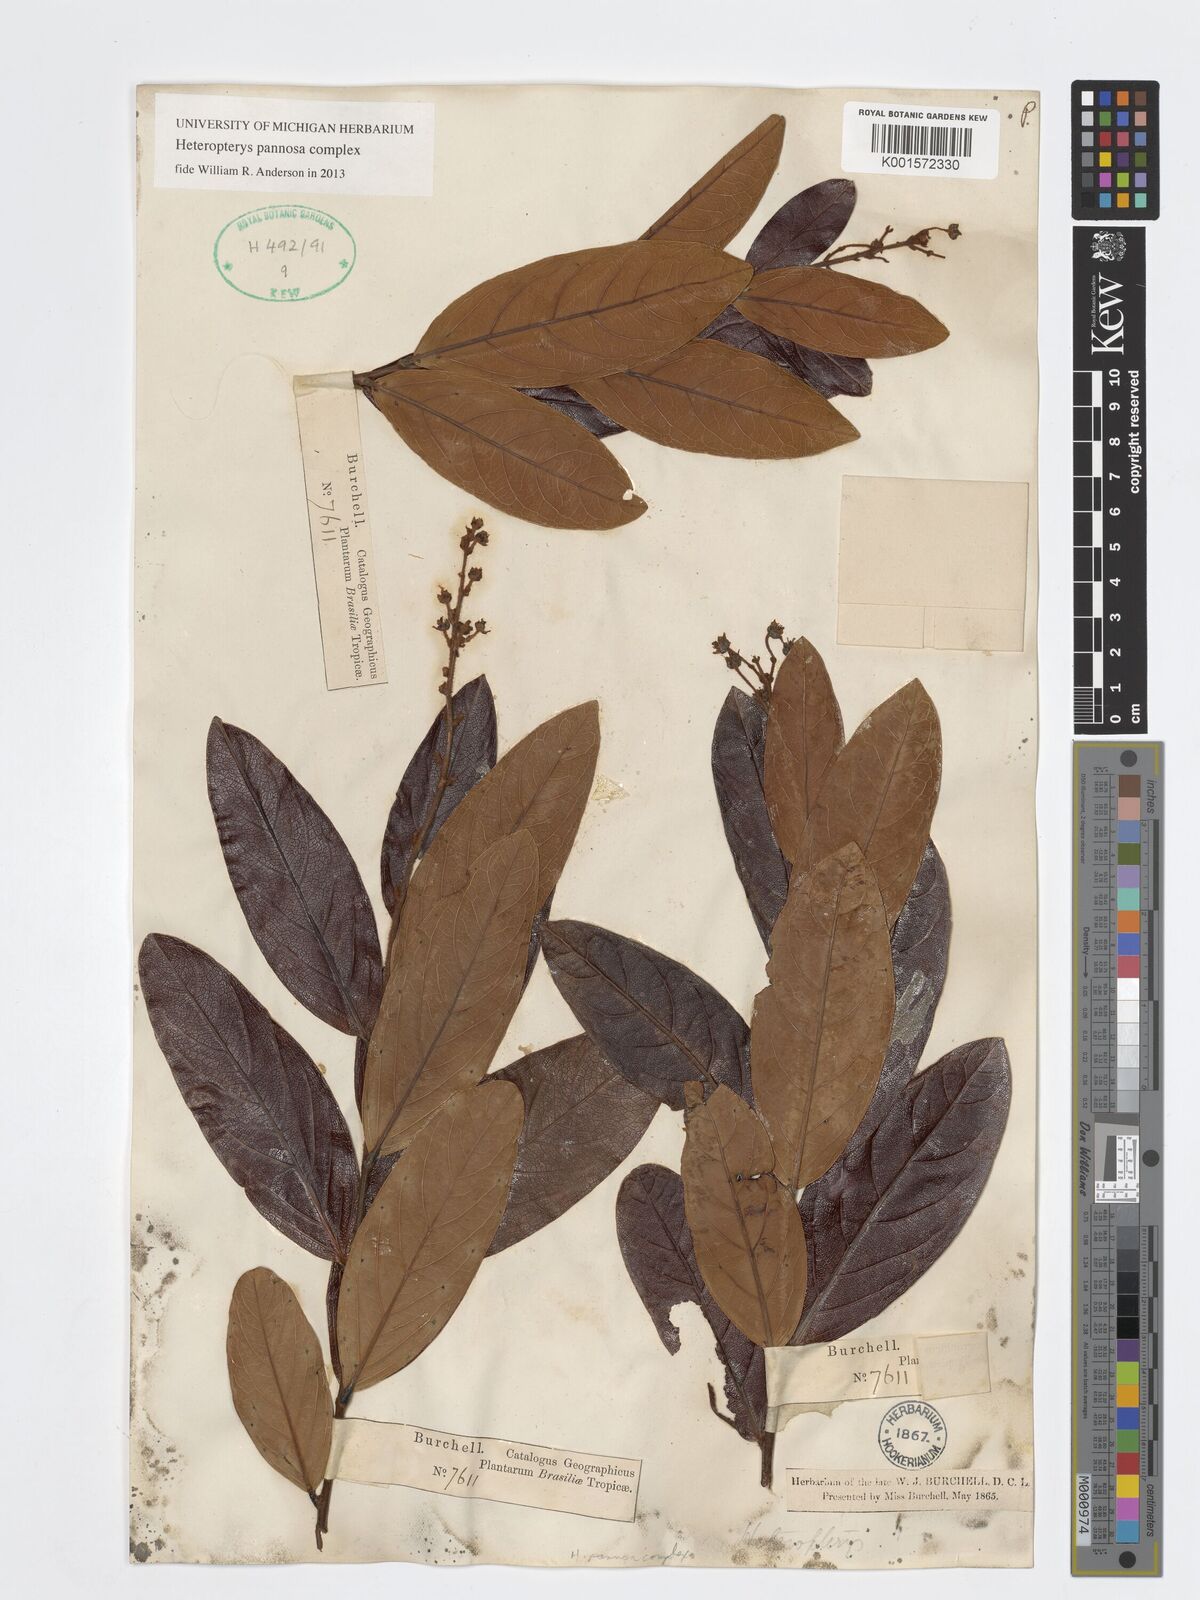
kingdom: Plantae
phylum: Tracheophyta
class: Magnoliopsida
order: Malpighiales
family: Malpighiaceae
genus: Heteropterys
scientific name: Heteropterys pannosa
